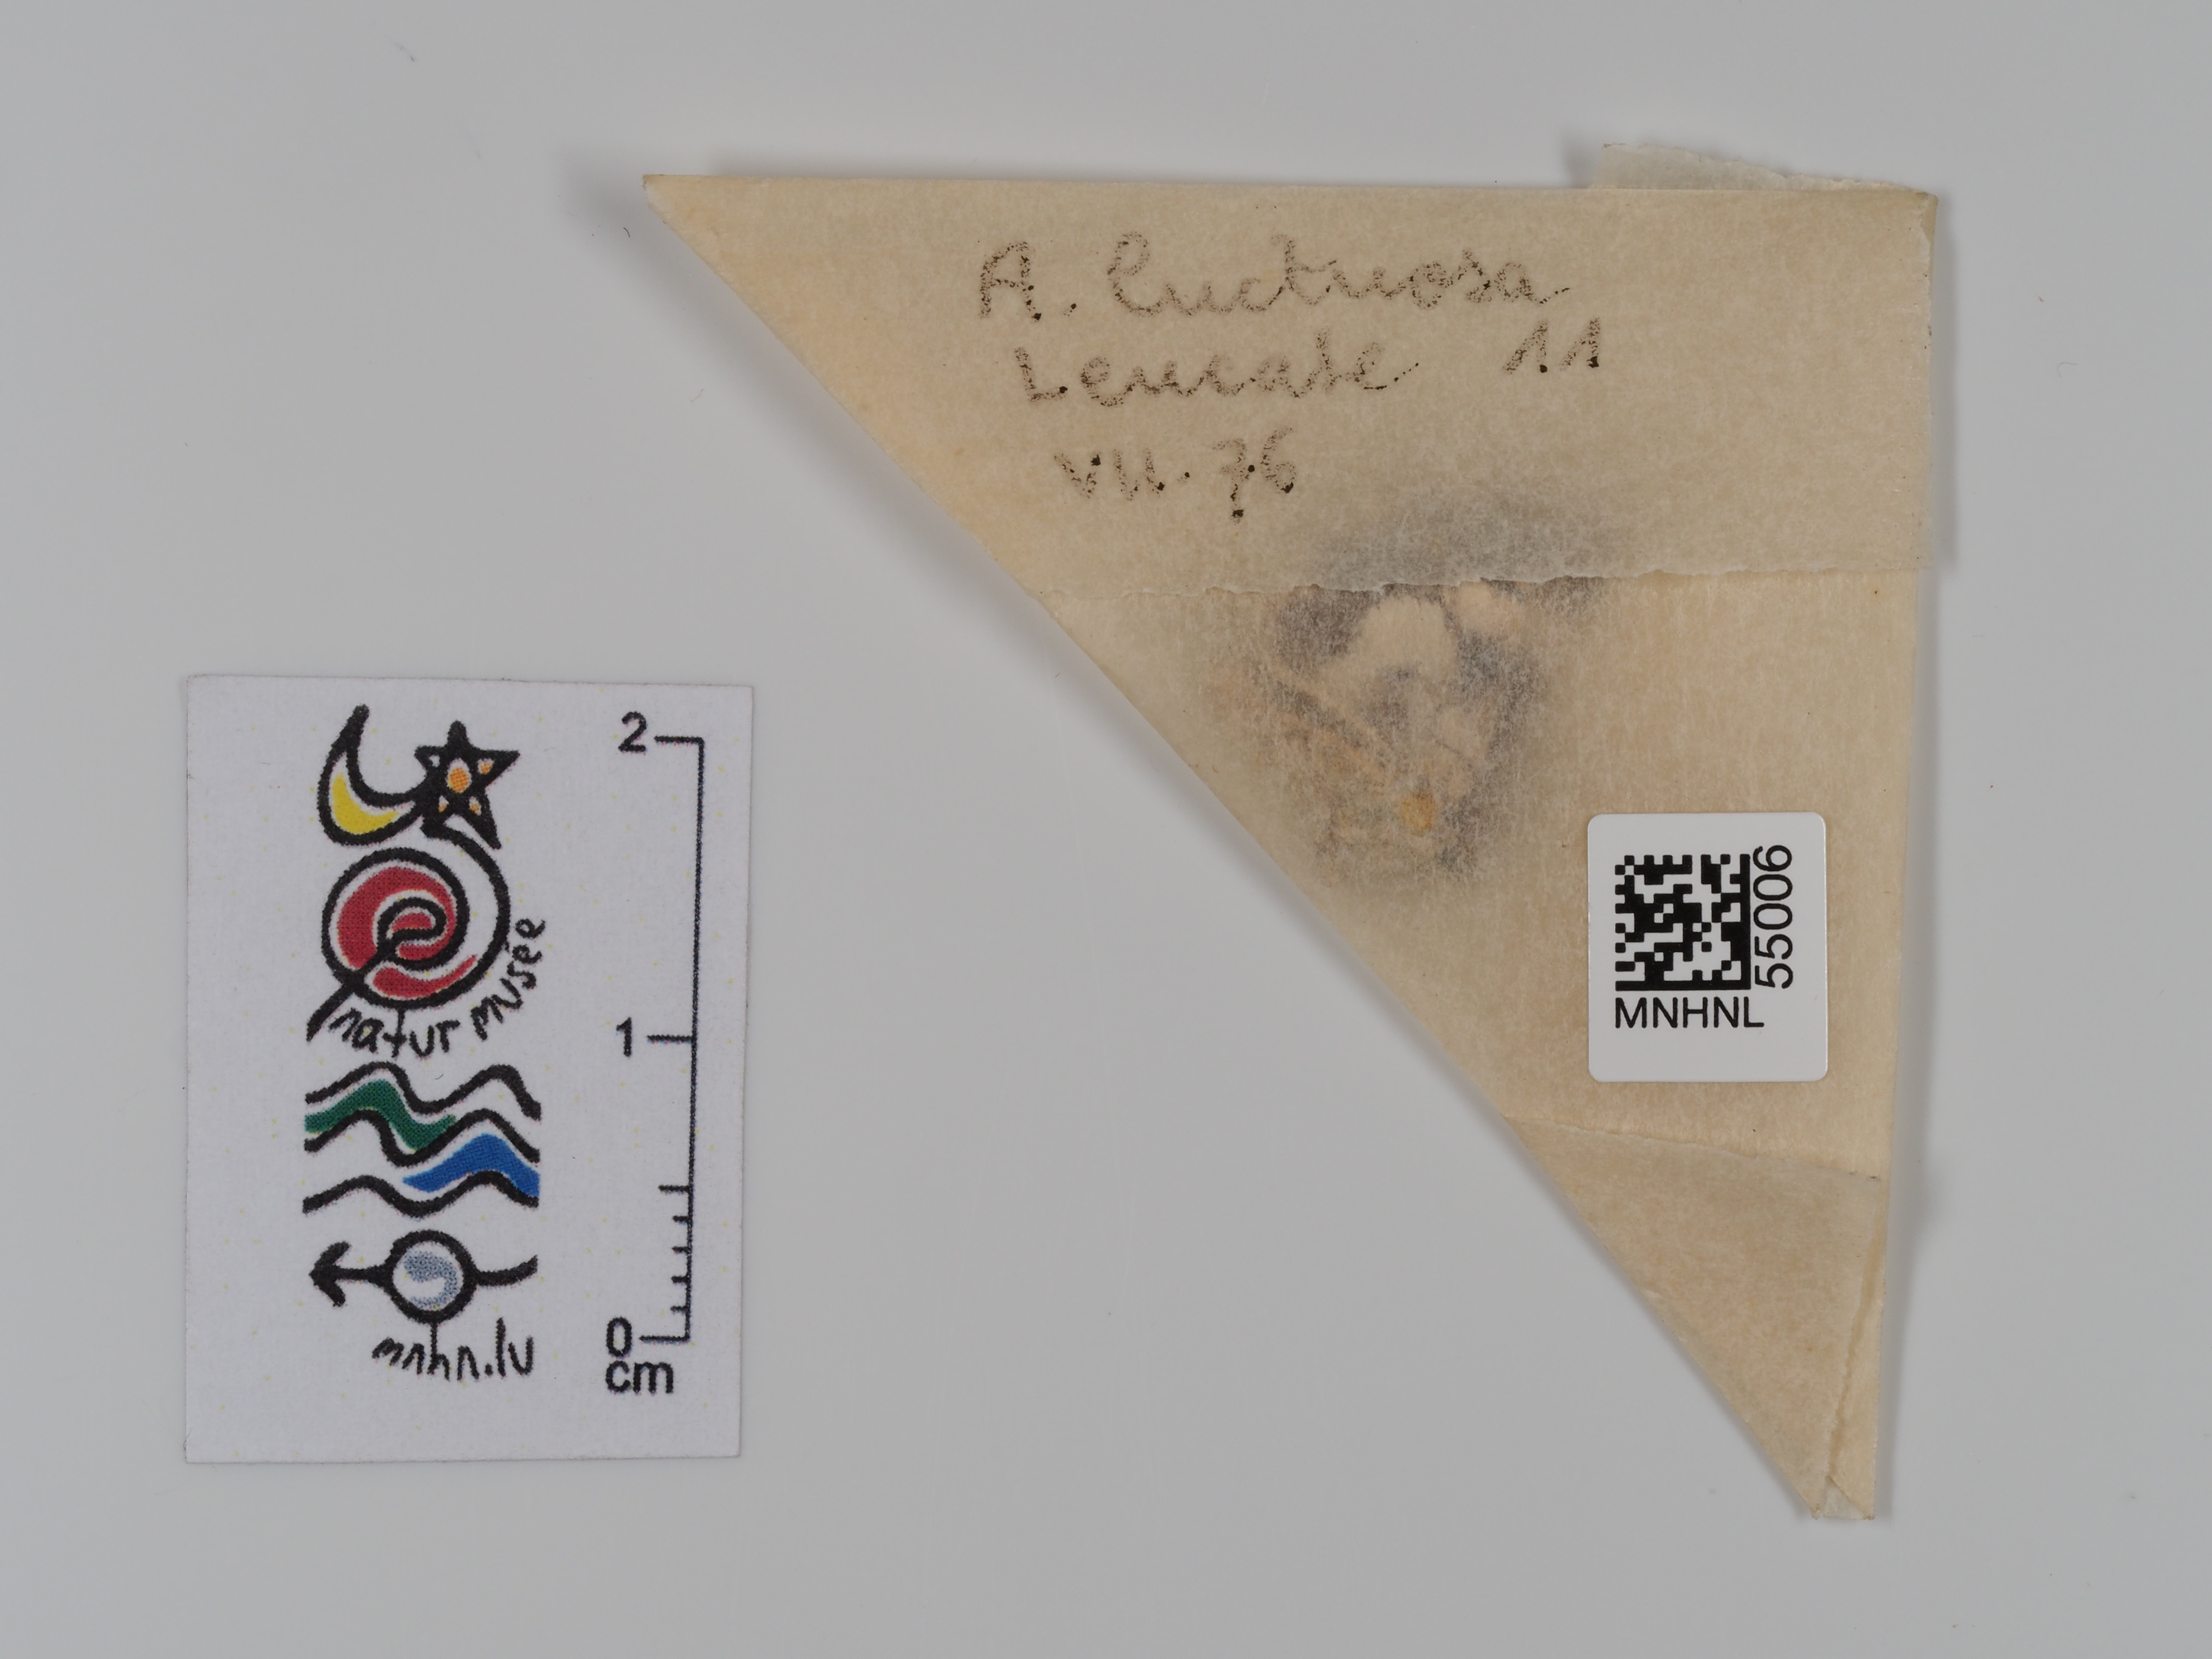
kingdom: Animalia
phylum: Arthropoda
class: Insecta
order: Lepidoptera
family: Erebidae
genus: Tyta
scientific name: Tyta luctuosa
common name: Four-spotted
